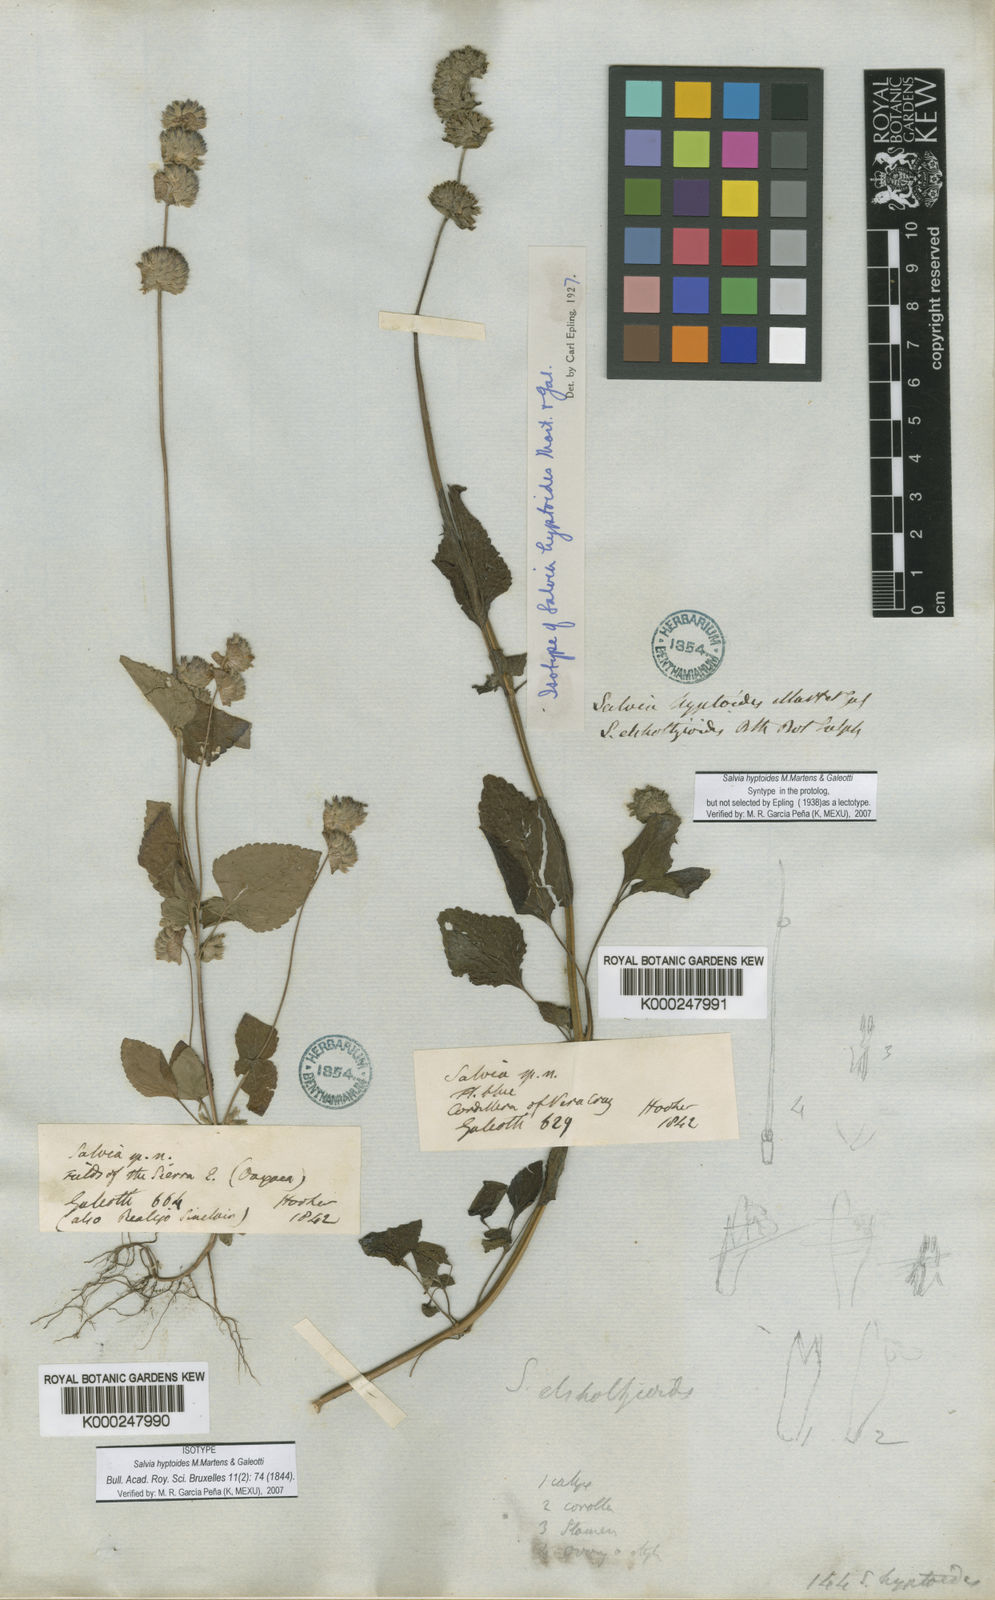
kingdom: Plantae
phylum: Tracheophyta
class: Magnoliopsida
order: Lamiales
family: Lamiaceae
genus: Salvia
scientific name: Salvia lasiocephala
